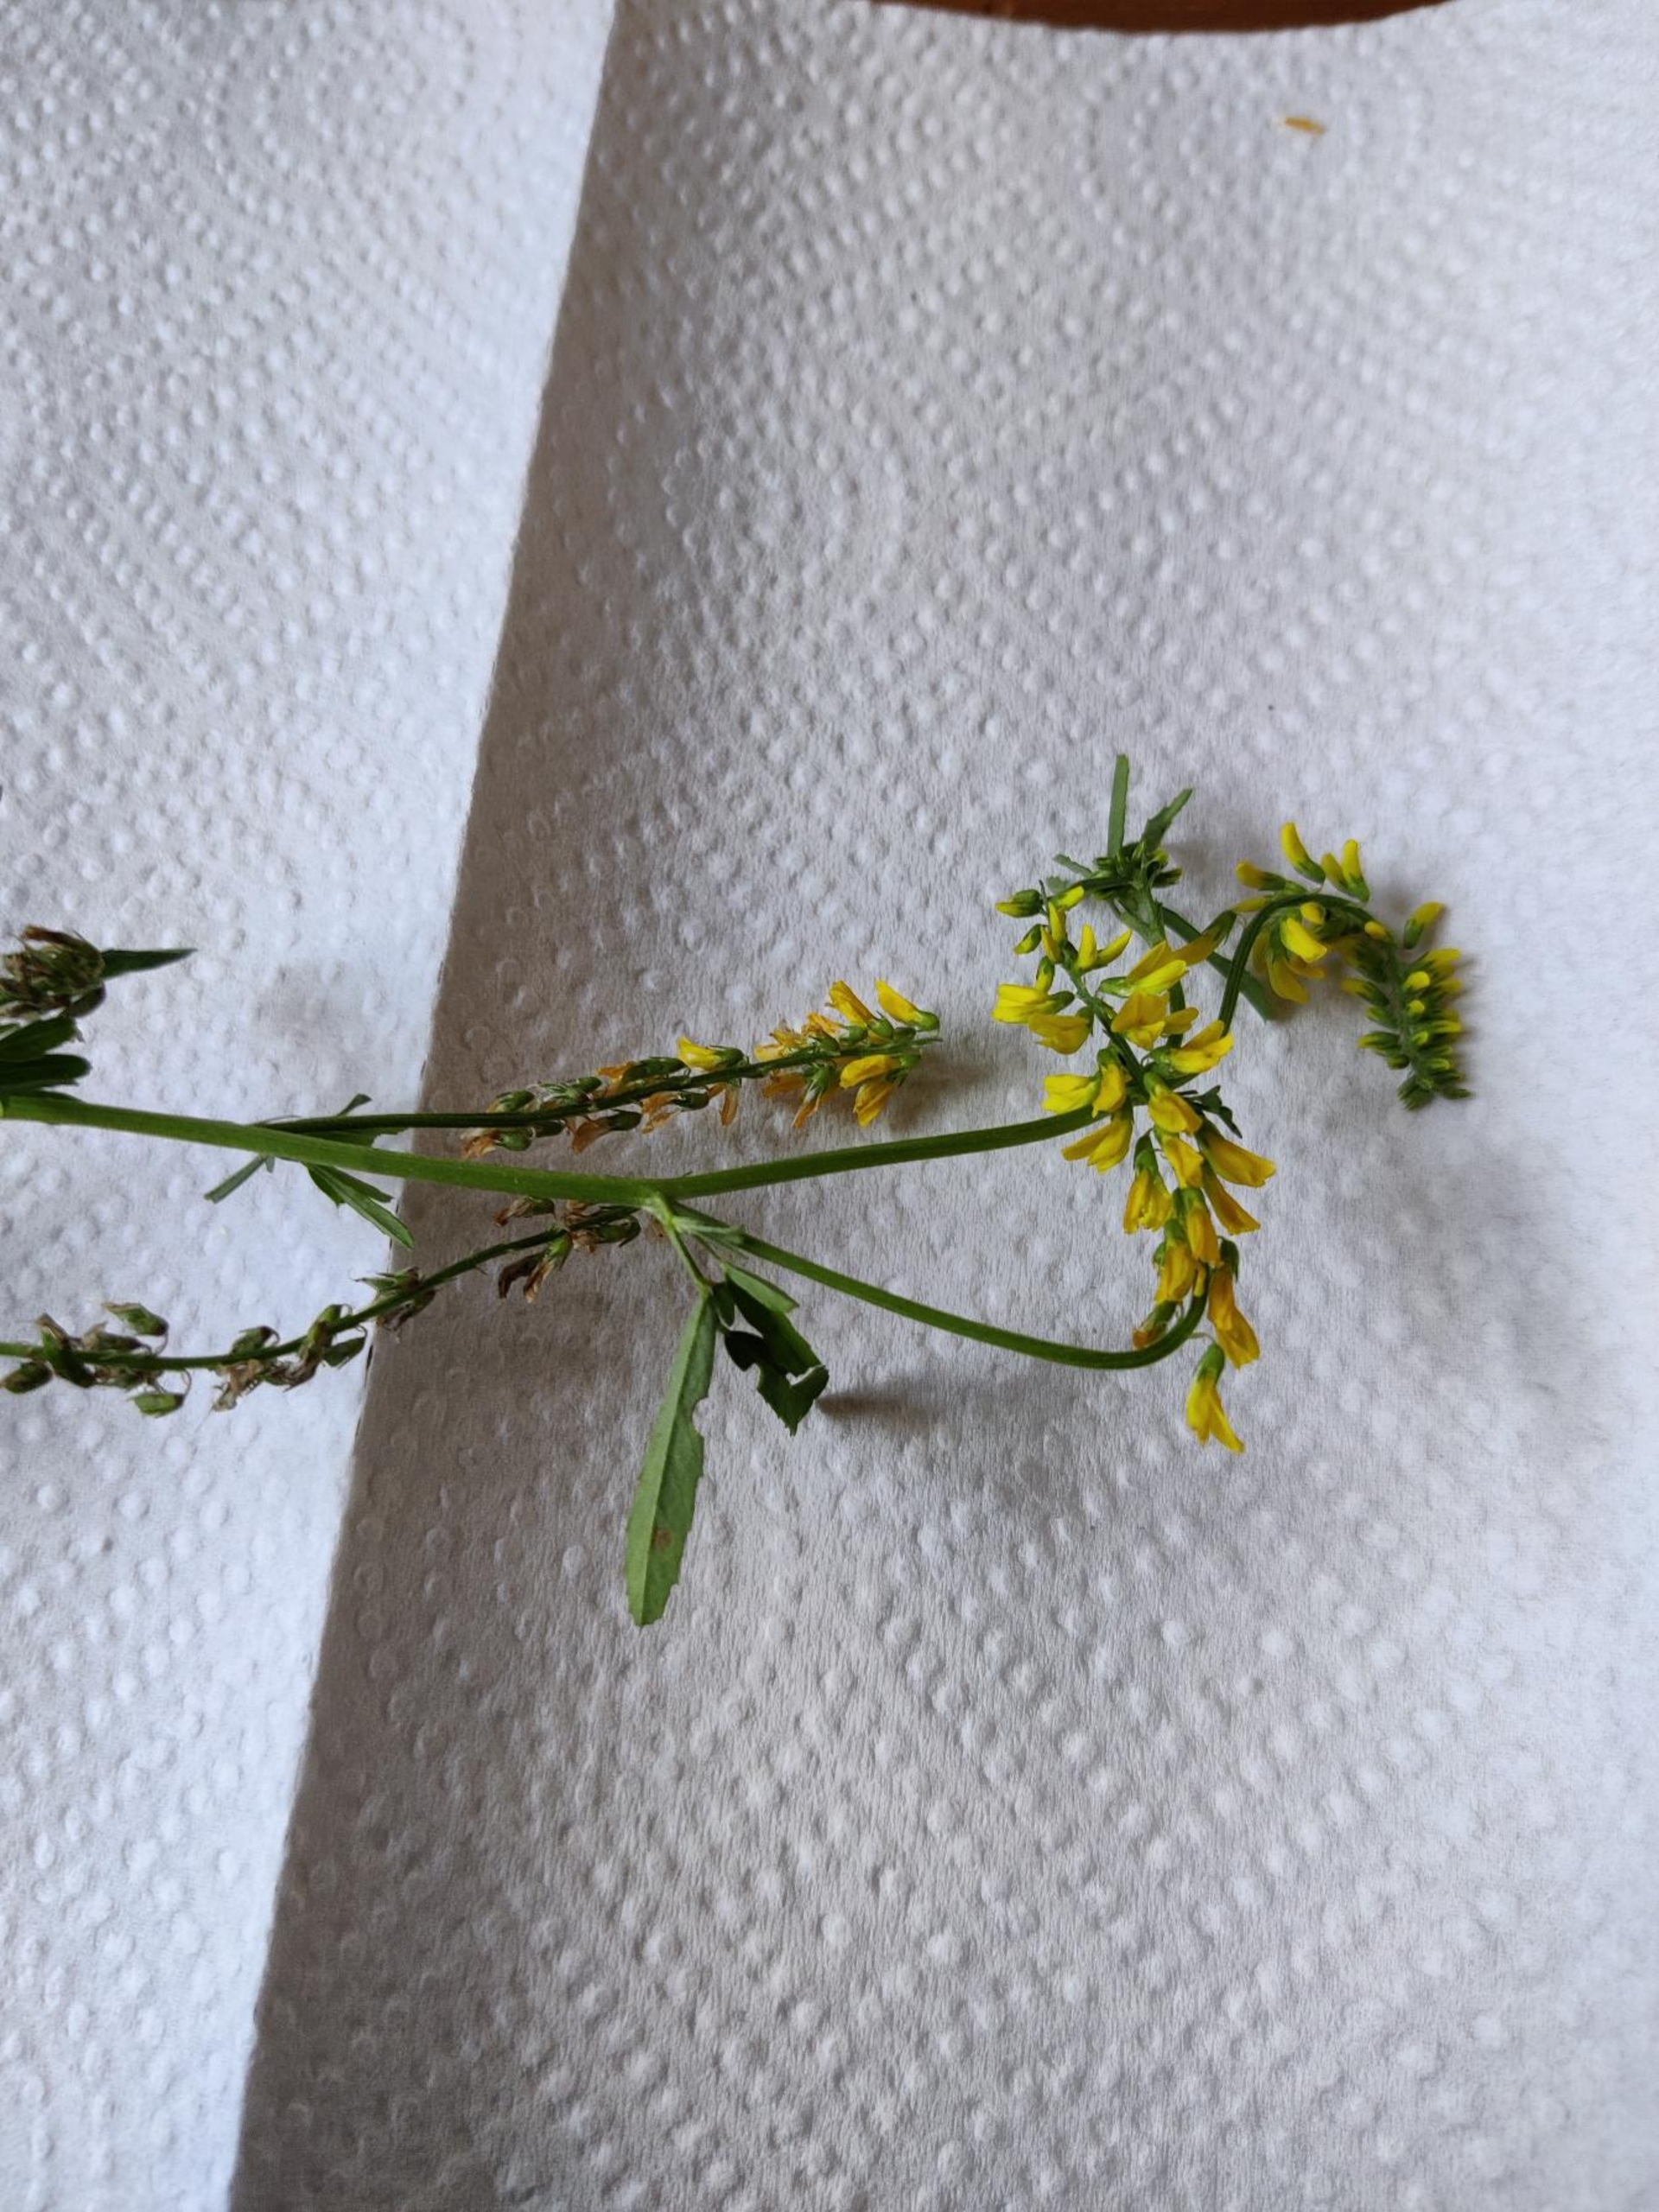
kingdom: Plantae
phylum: Tracheophyta
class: Magnoliopsida
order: Fabales
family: Fabaceae
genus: Melilotus
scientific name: Melilotus officinalis
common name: Mark-stenkløver
